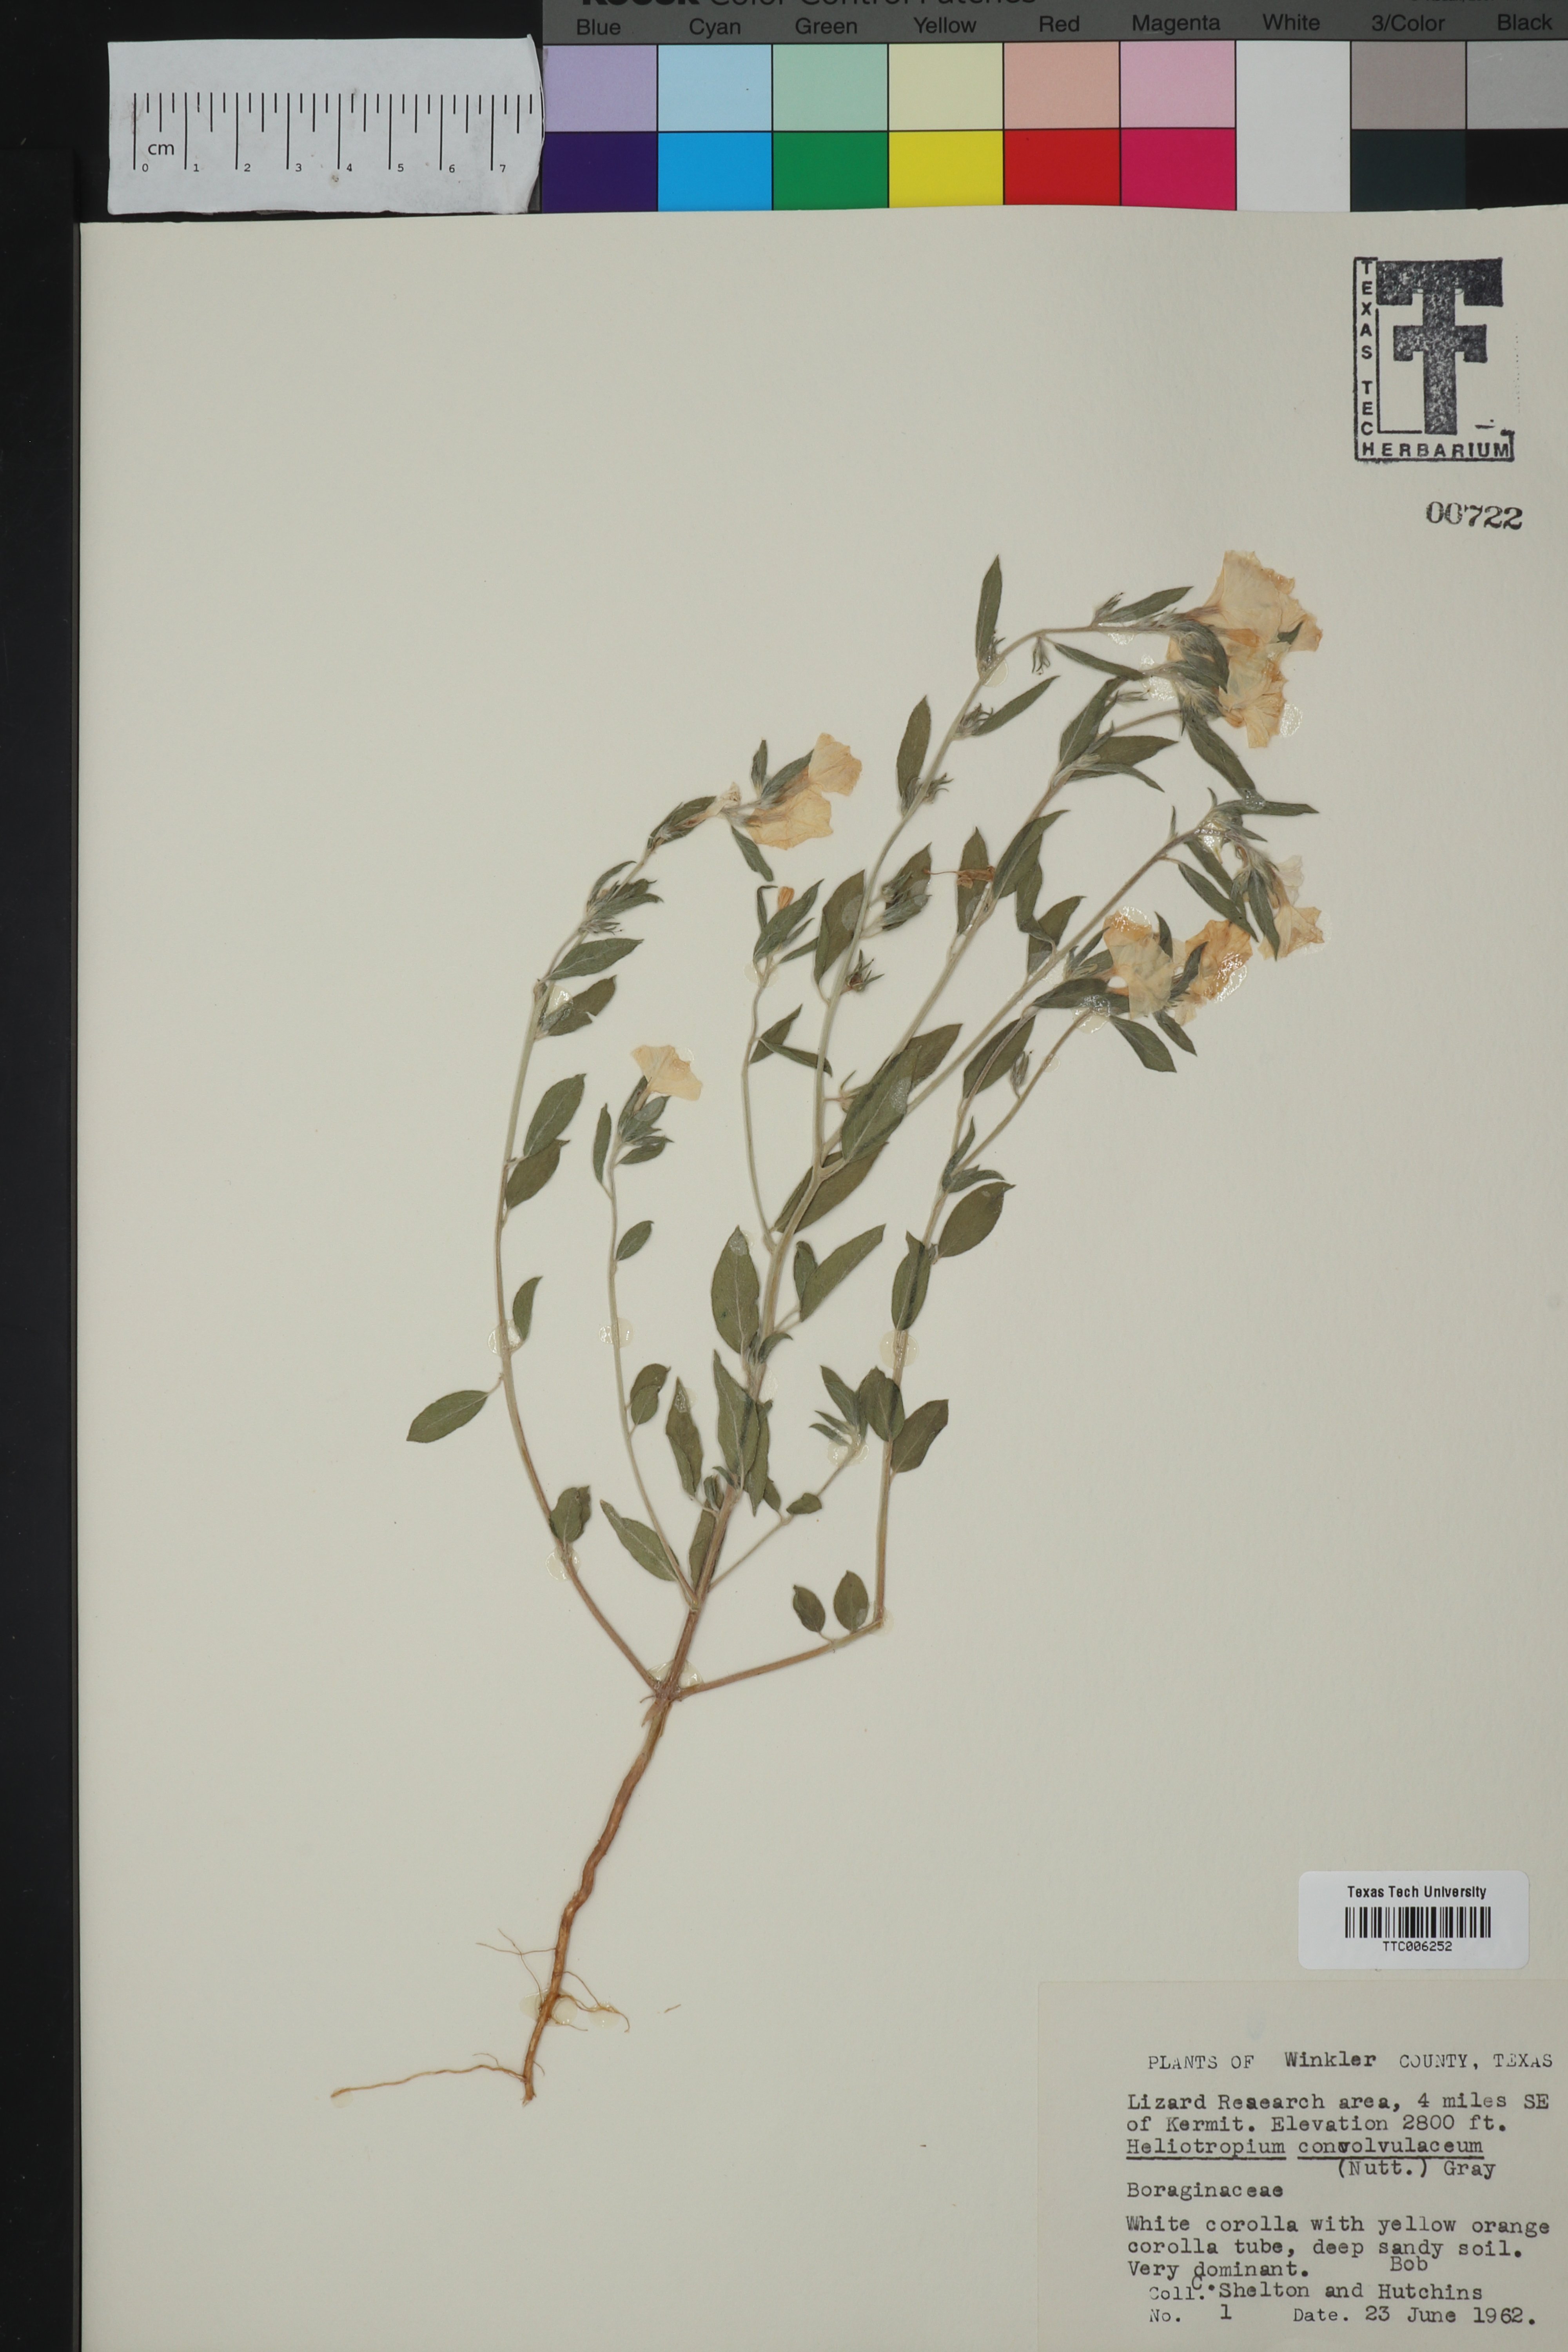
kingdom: Plantae
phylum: Tracheophyta
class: Magnoliopsida
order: Boraginales
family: Heliotropiaceae
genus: Euploca
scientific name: Euploca convolvulacea
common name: Bindweed heliotrope
